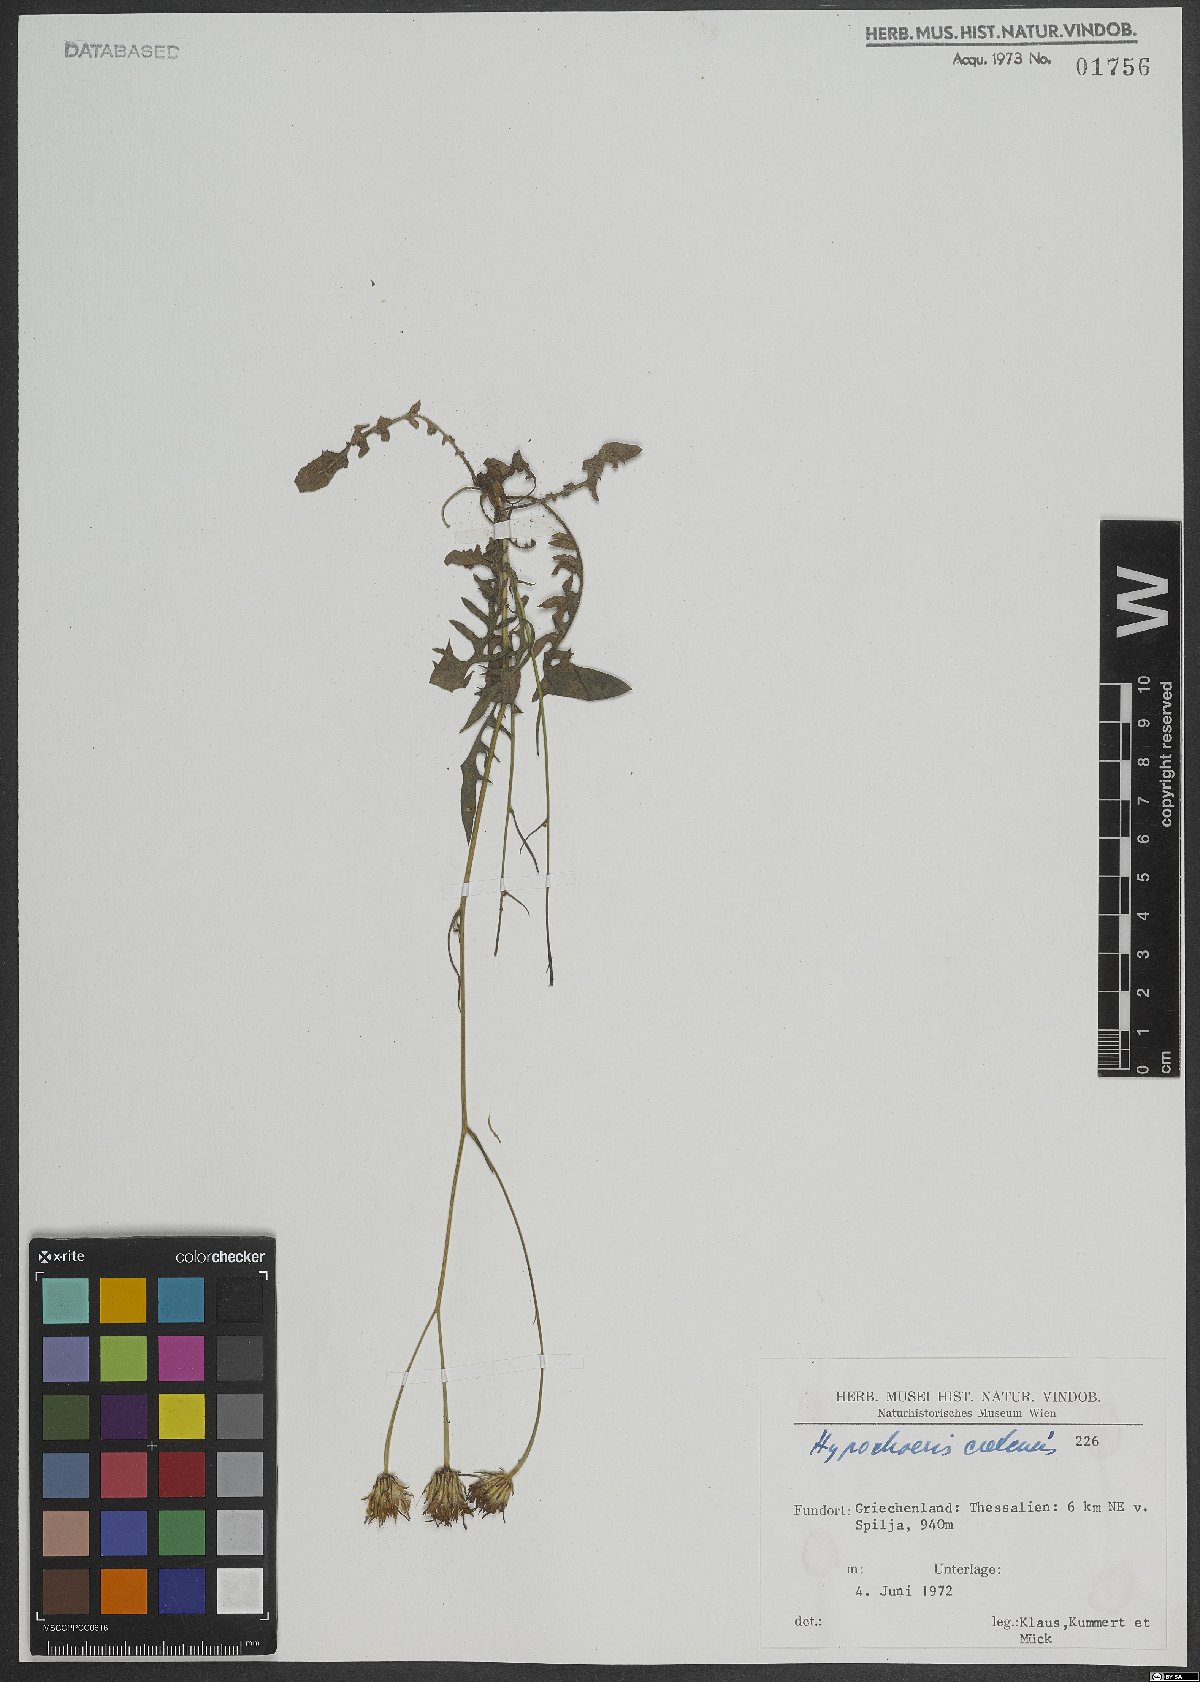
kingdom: Plantae
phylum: Tracheophyta
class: Magnoliopsida
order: Asterales
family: Asteraceae
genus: Hypochaeris
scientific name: Hypochaeris cretensis
